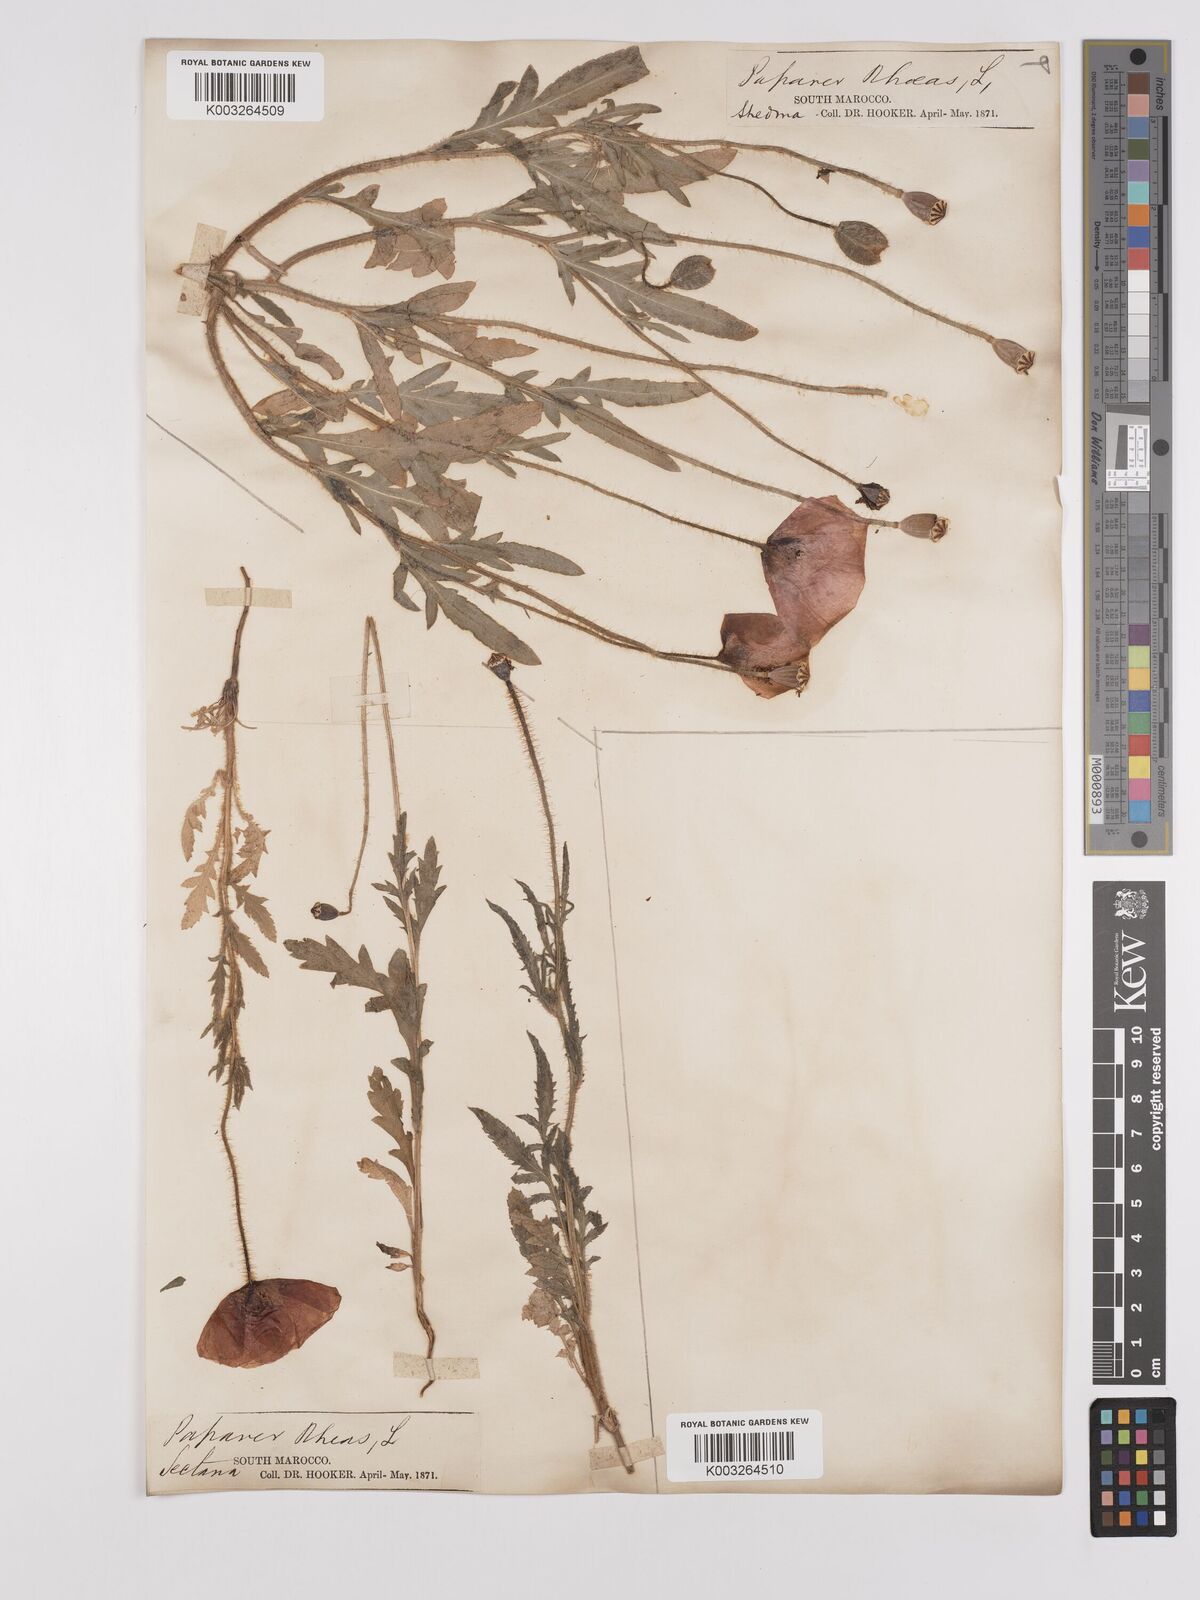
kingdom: Plantae
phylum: Tracheophyta
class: Magnoliopsida
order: Ranunculales
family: Papaveraceae
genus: Papaver
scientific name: Papaver rhoeas
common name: Corn poppy
